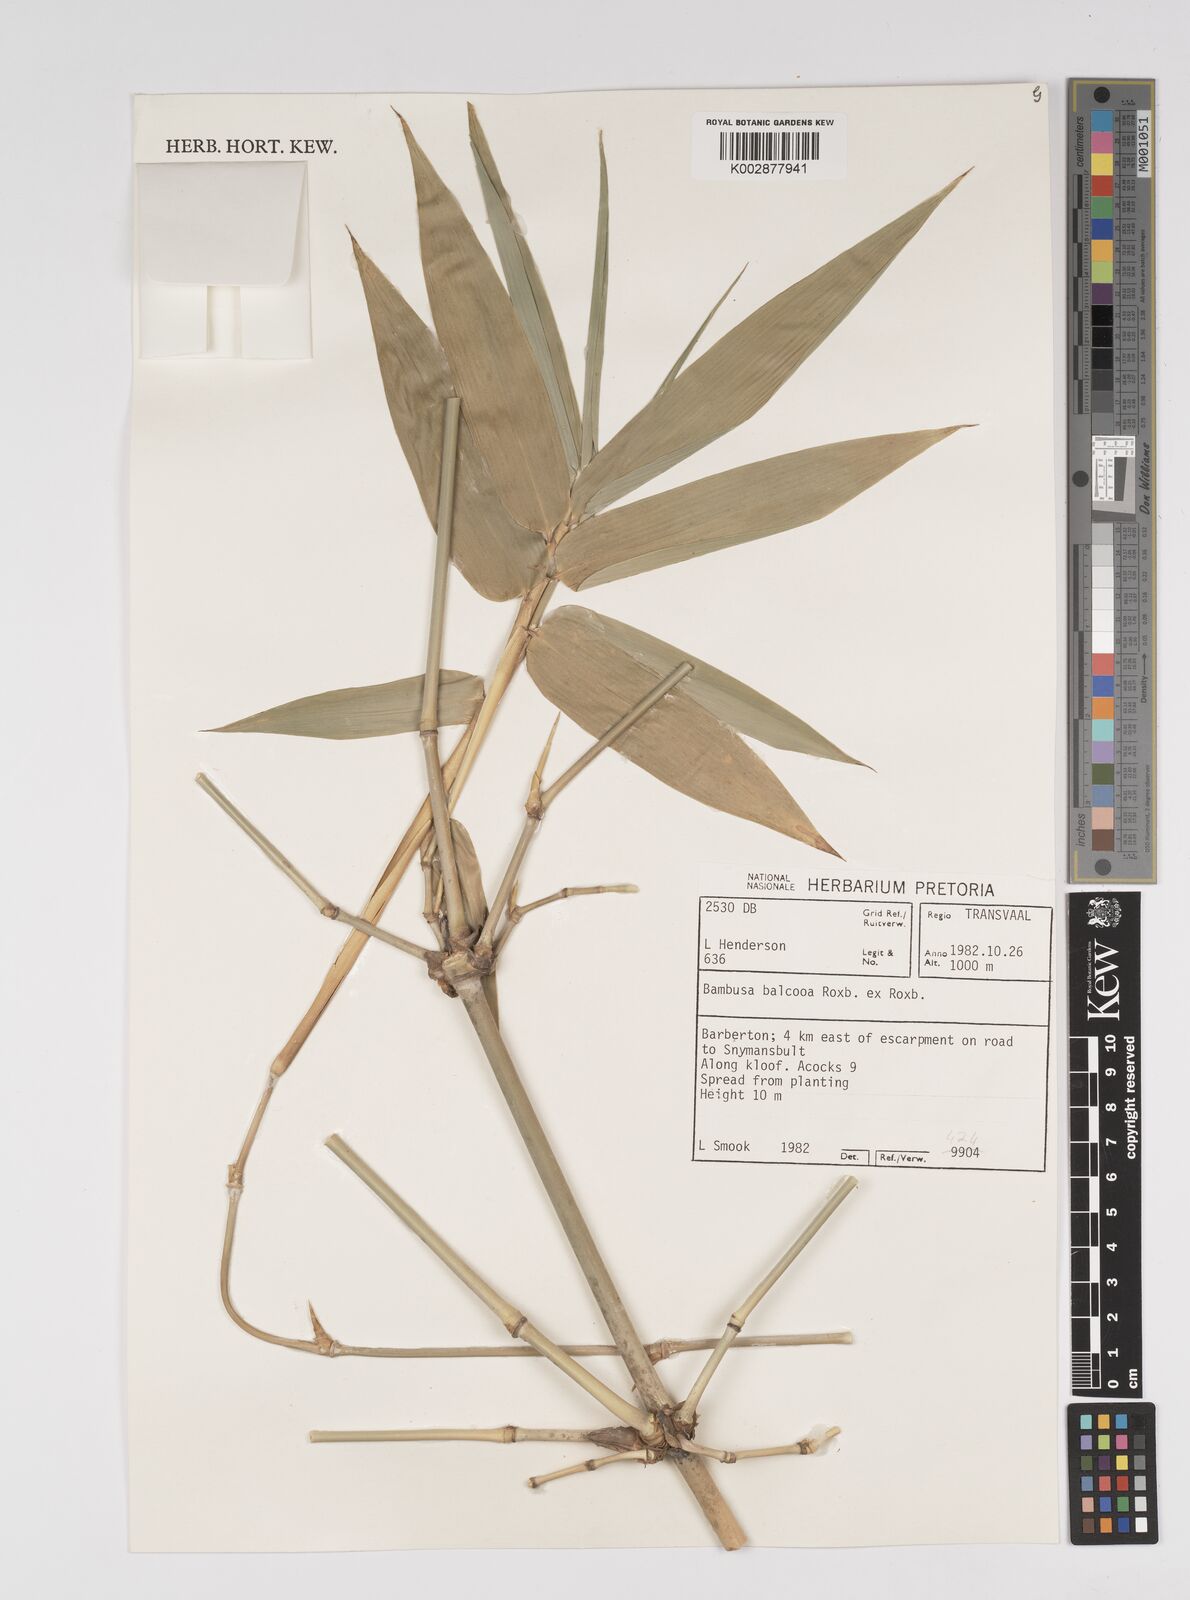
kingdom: Plantae
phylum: Tracheophyta
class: Liliopsida
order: Poales
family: Poaceae
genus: Bambusa
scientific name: Bambusa balcooa
